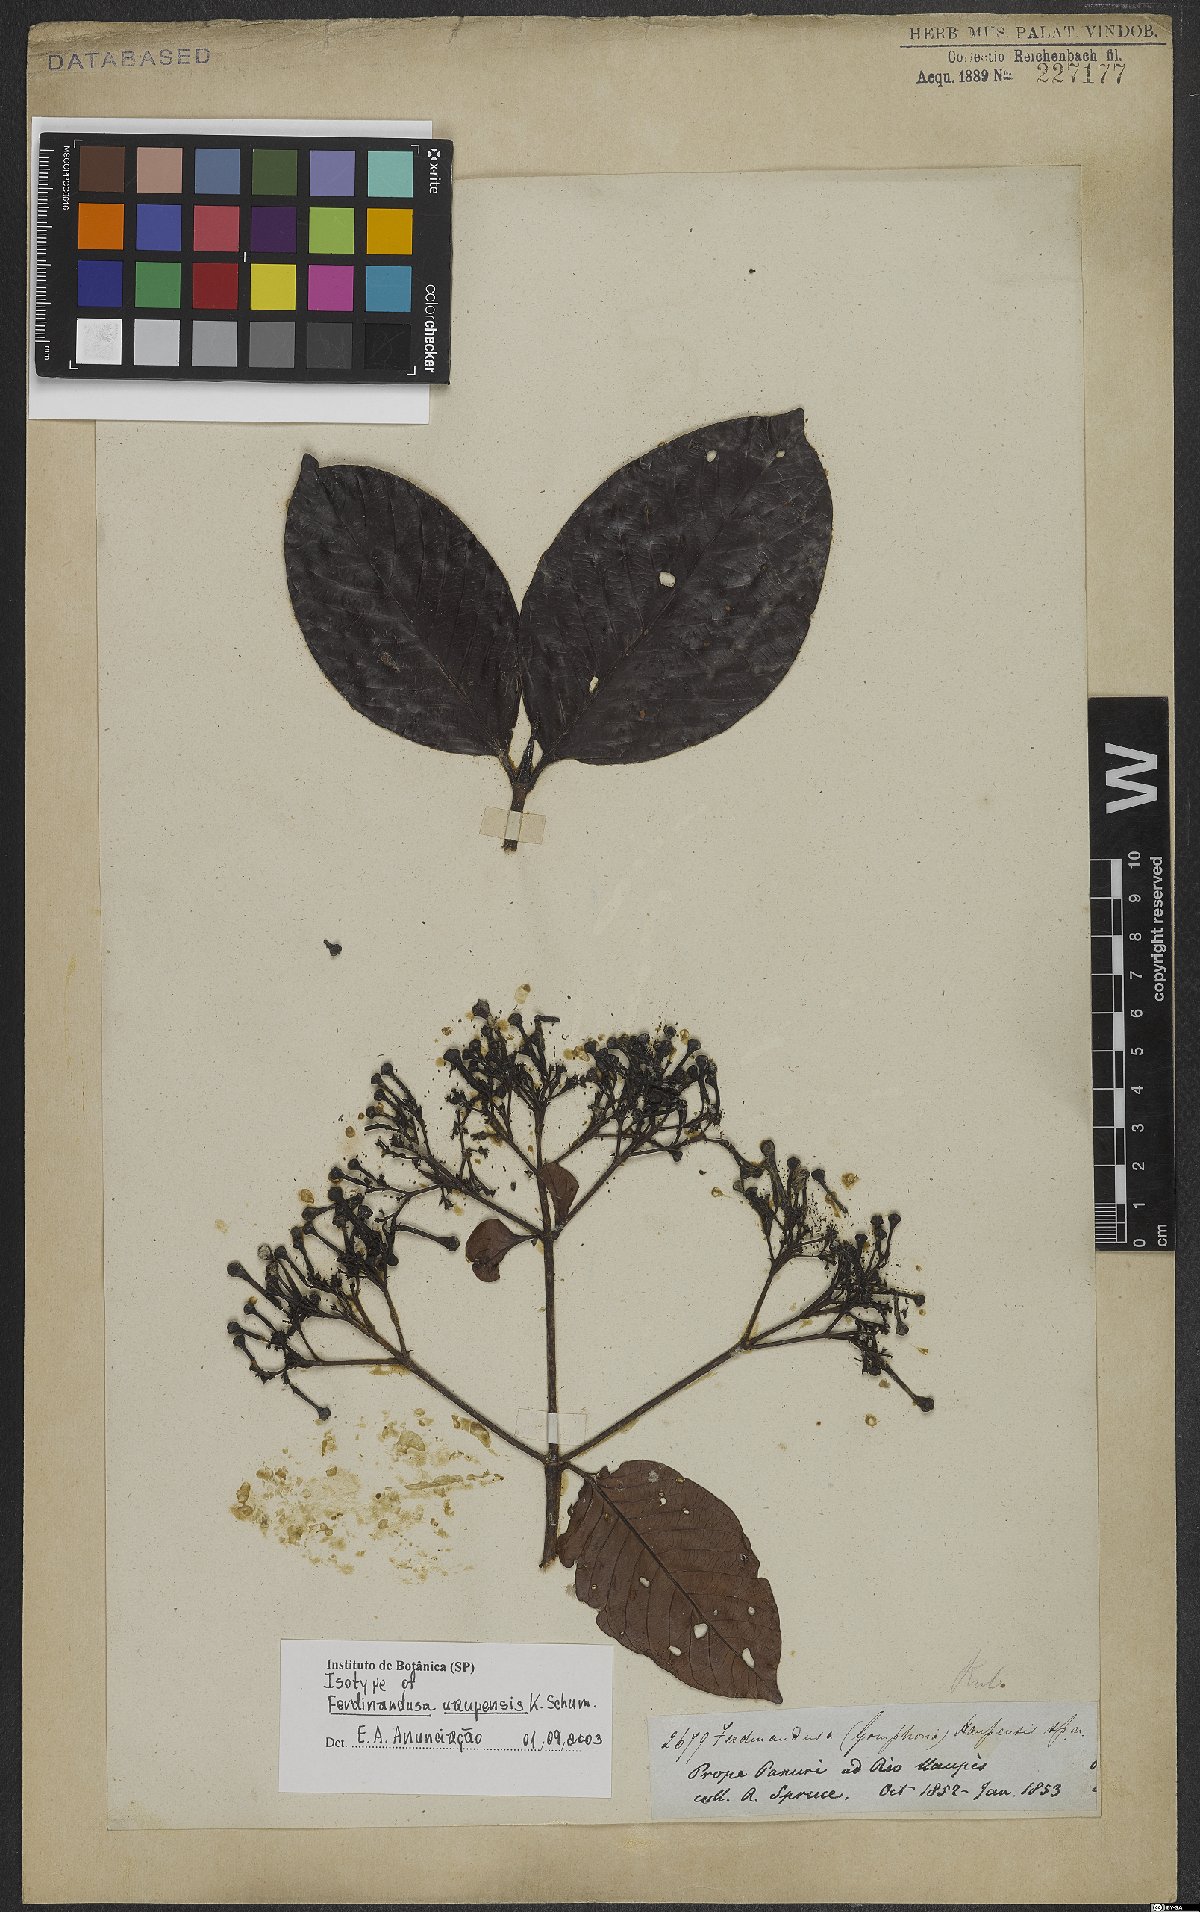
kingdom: Plantae
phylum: Tracheophyta
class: Magnoliopsida
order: Gentianales
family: Rubiaceae
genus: Ferdinandusa
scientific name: Ferdinandusa uaupensis
